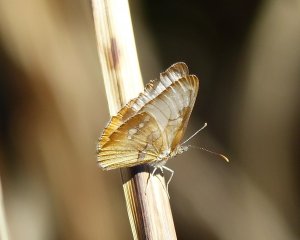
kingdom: Animalia
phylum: Arthropoda
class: Insecta
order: Lepidoptera
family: Nymphalidae
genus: Mestra
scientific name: Mestra amymone
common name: Common Mestra
